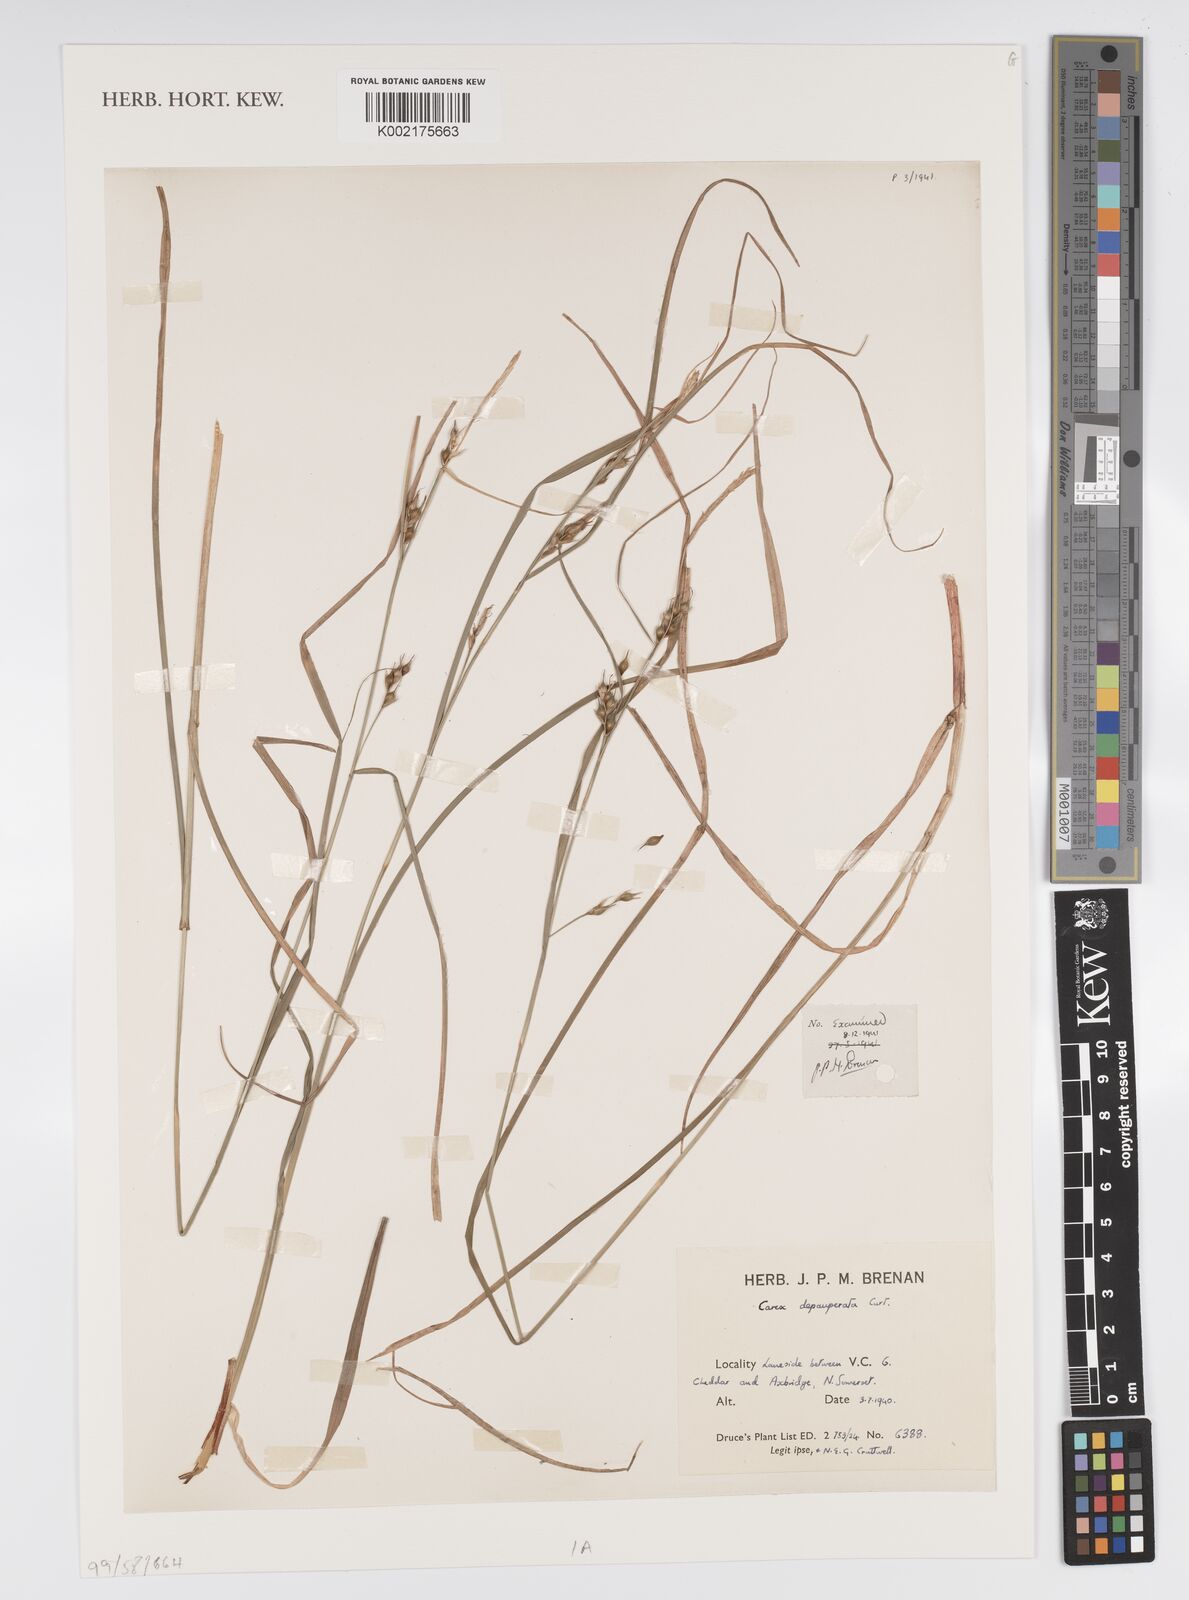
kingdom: Plantae
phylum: Tracheophyta
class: Liliopsida
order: Poales
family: Cyperaceae
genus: Carex
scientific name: Carex depauperata
